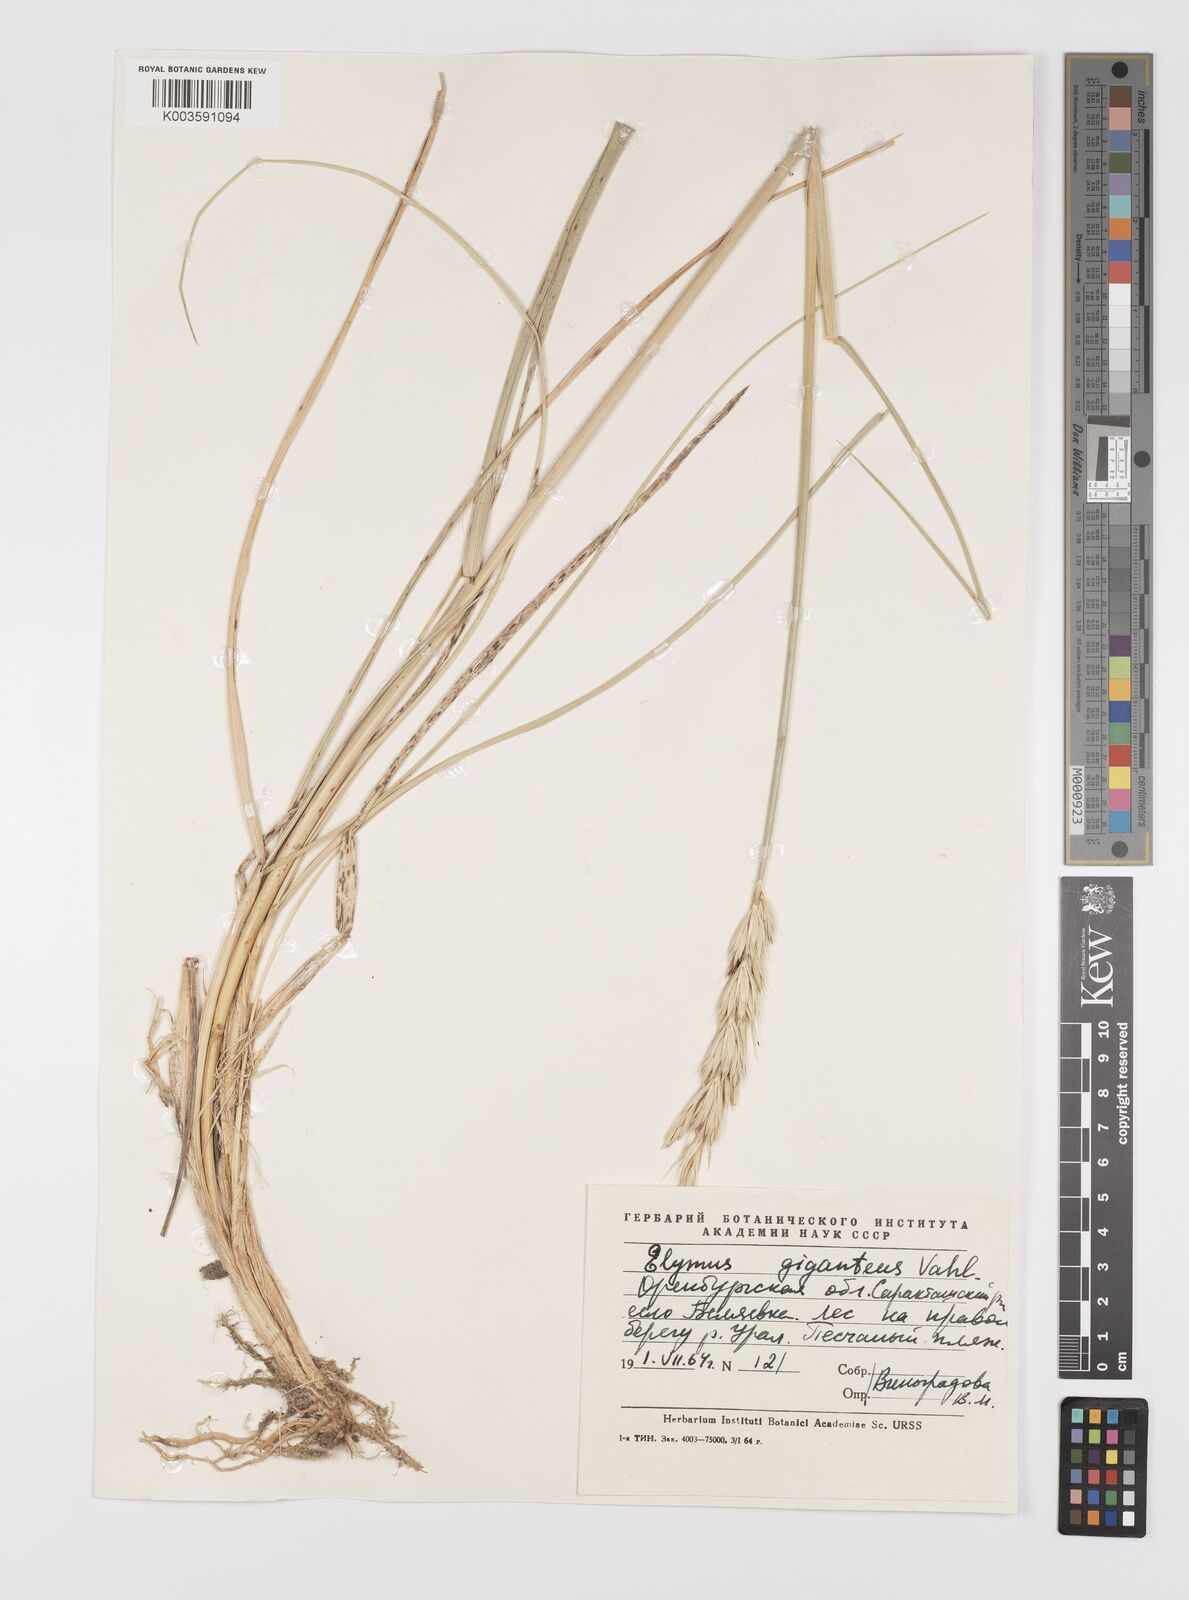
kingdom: Plantae
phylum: Tracheophyta
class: Liliopsida
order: Poales
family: Poaceae
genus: Leymus
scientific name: Leymus racemosus
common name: Mammoth wildrye
